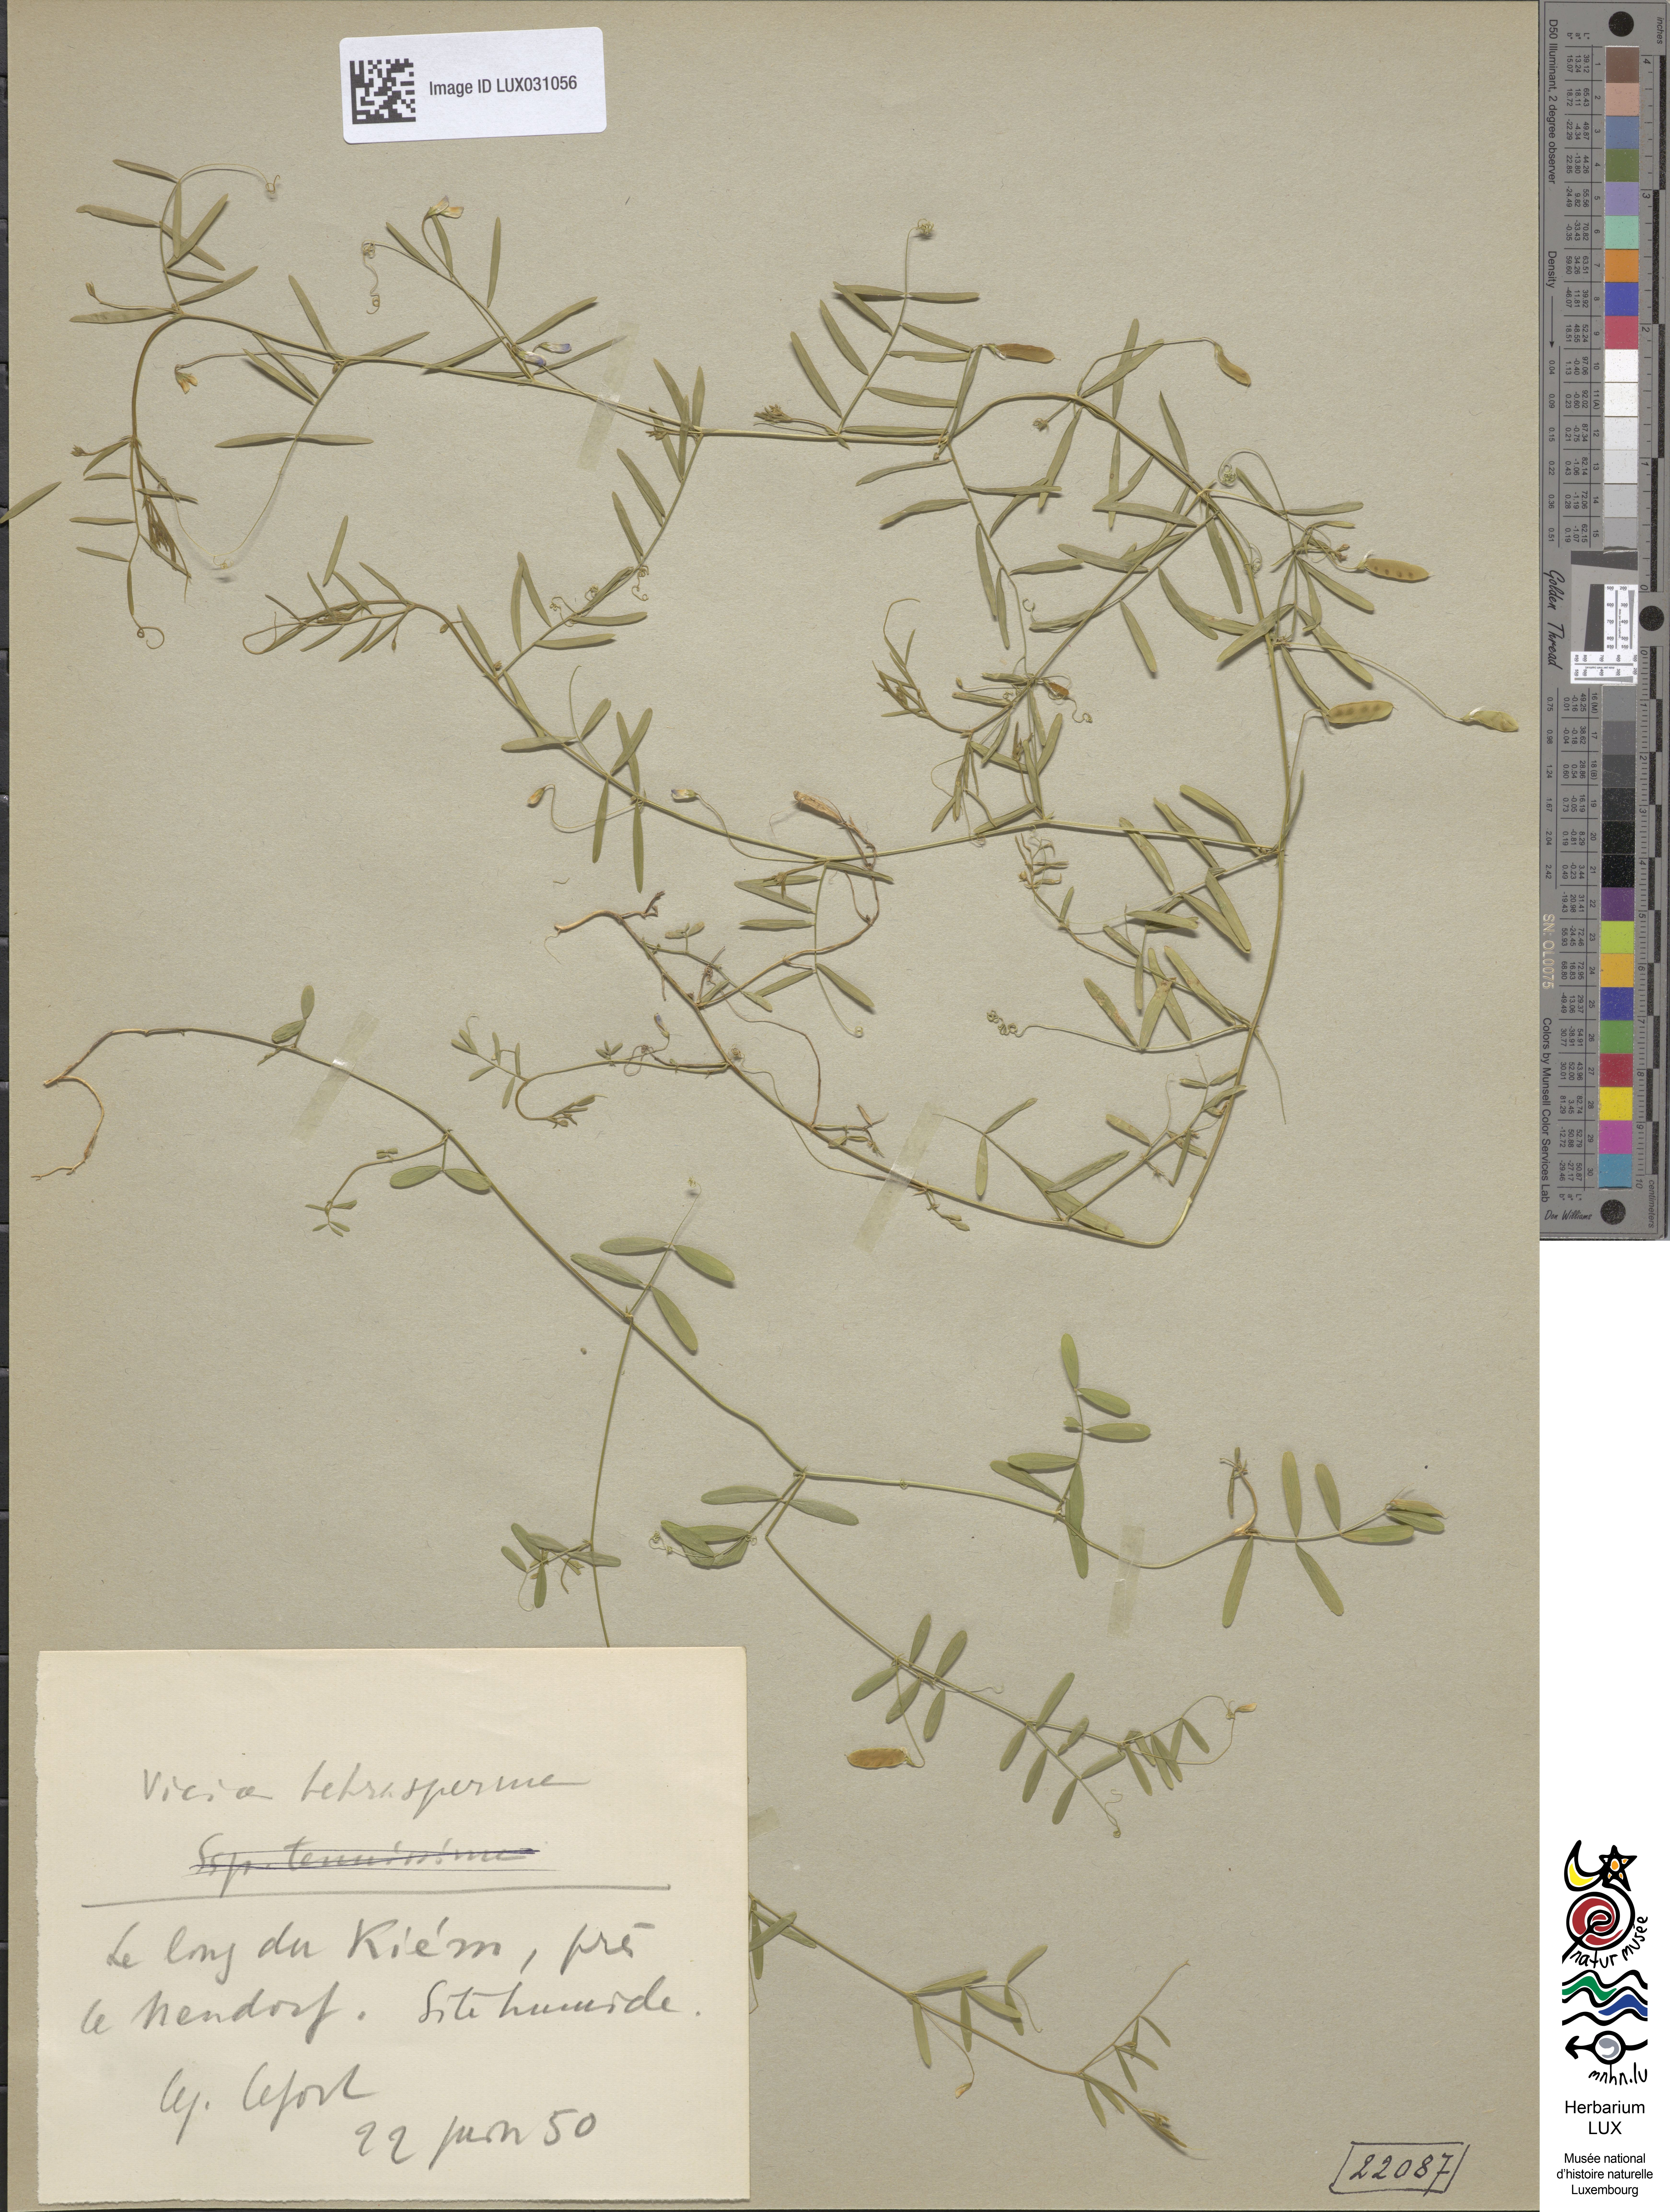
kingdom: Plantae
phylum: Tracheophyta
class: Magnoliopsida
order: Fabales
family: Fabaceae
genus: Vicia
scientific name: Vicia tetrasperma
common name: Smooth tare
